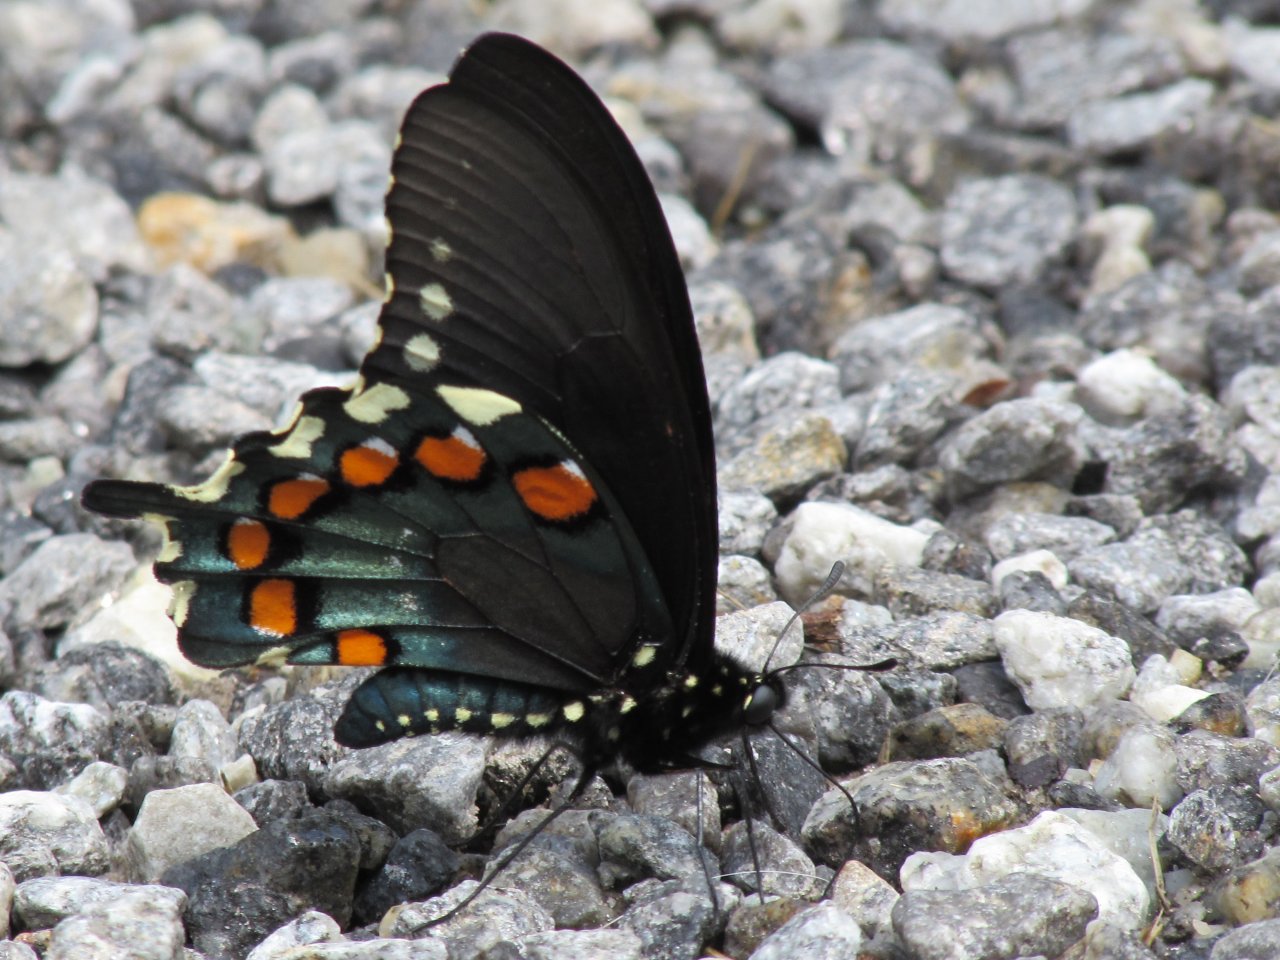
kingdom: Animalia
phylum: Arthropoda
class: Insecta
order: Lepidoptera
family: Papilionidae
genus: Battus
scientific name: Battus philenor
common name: Pipevine Swallowtail
